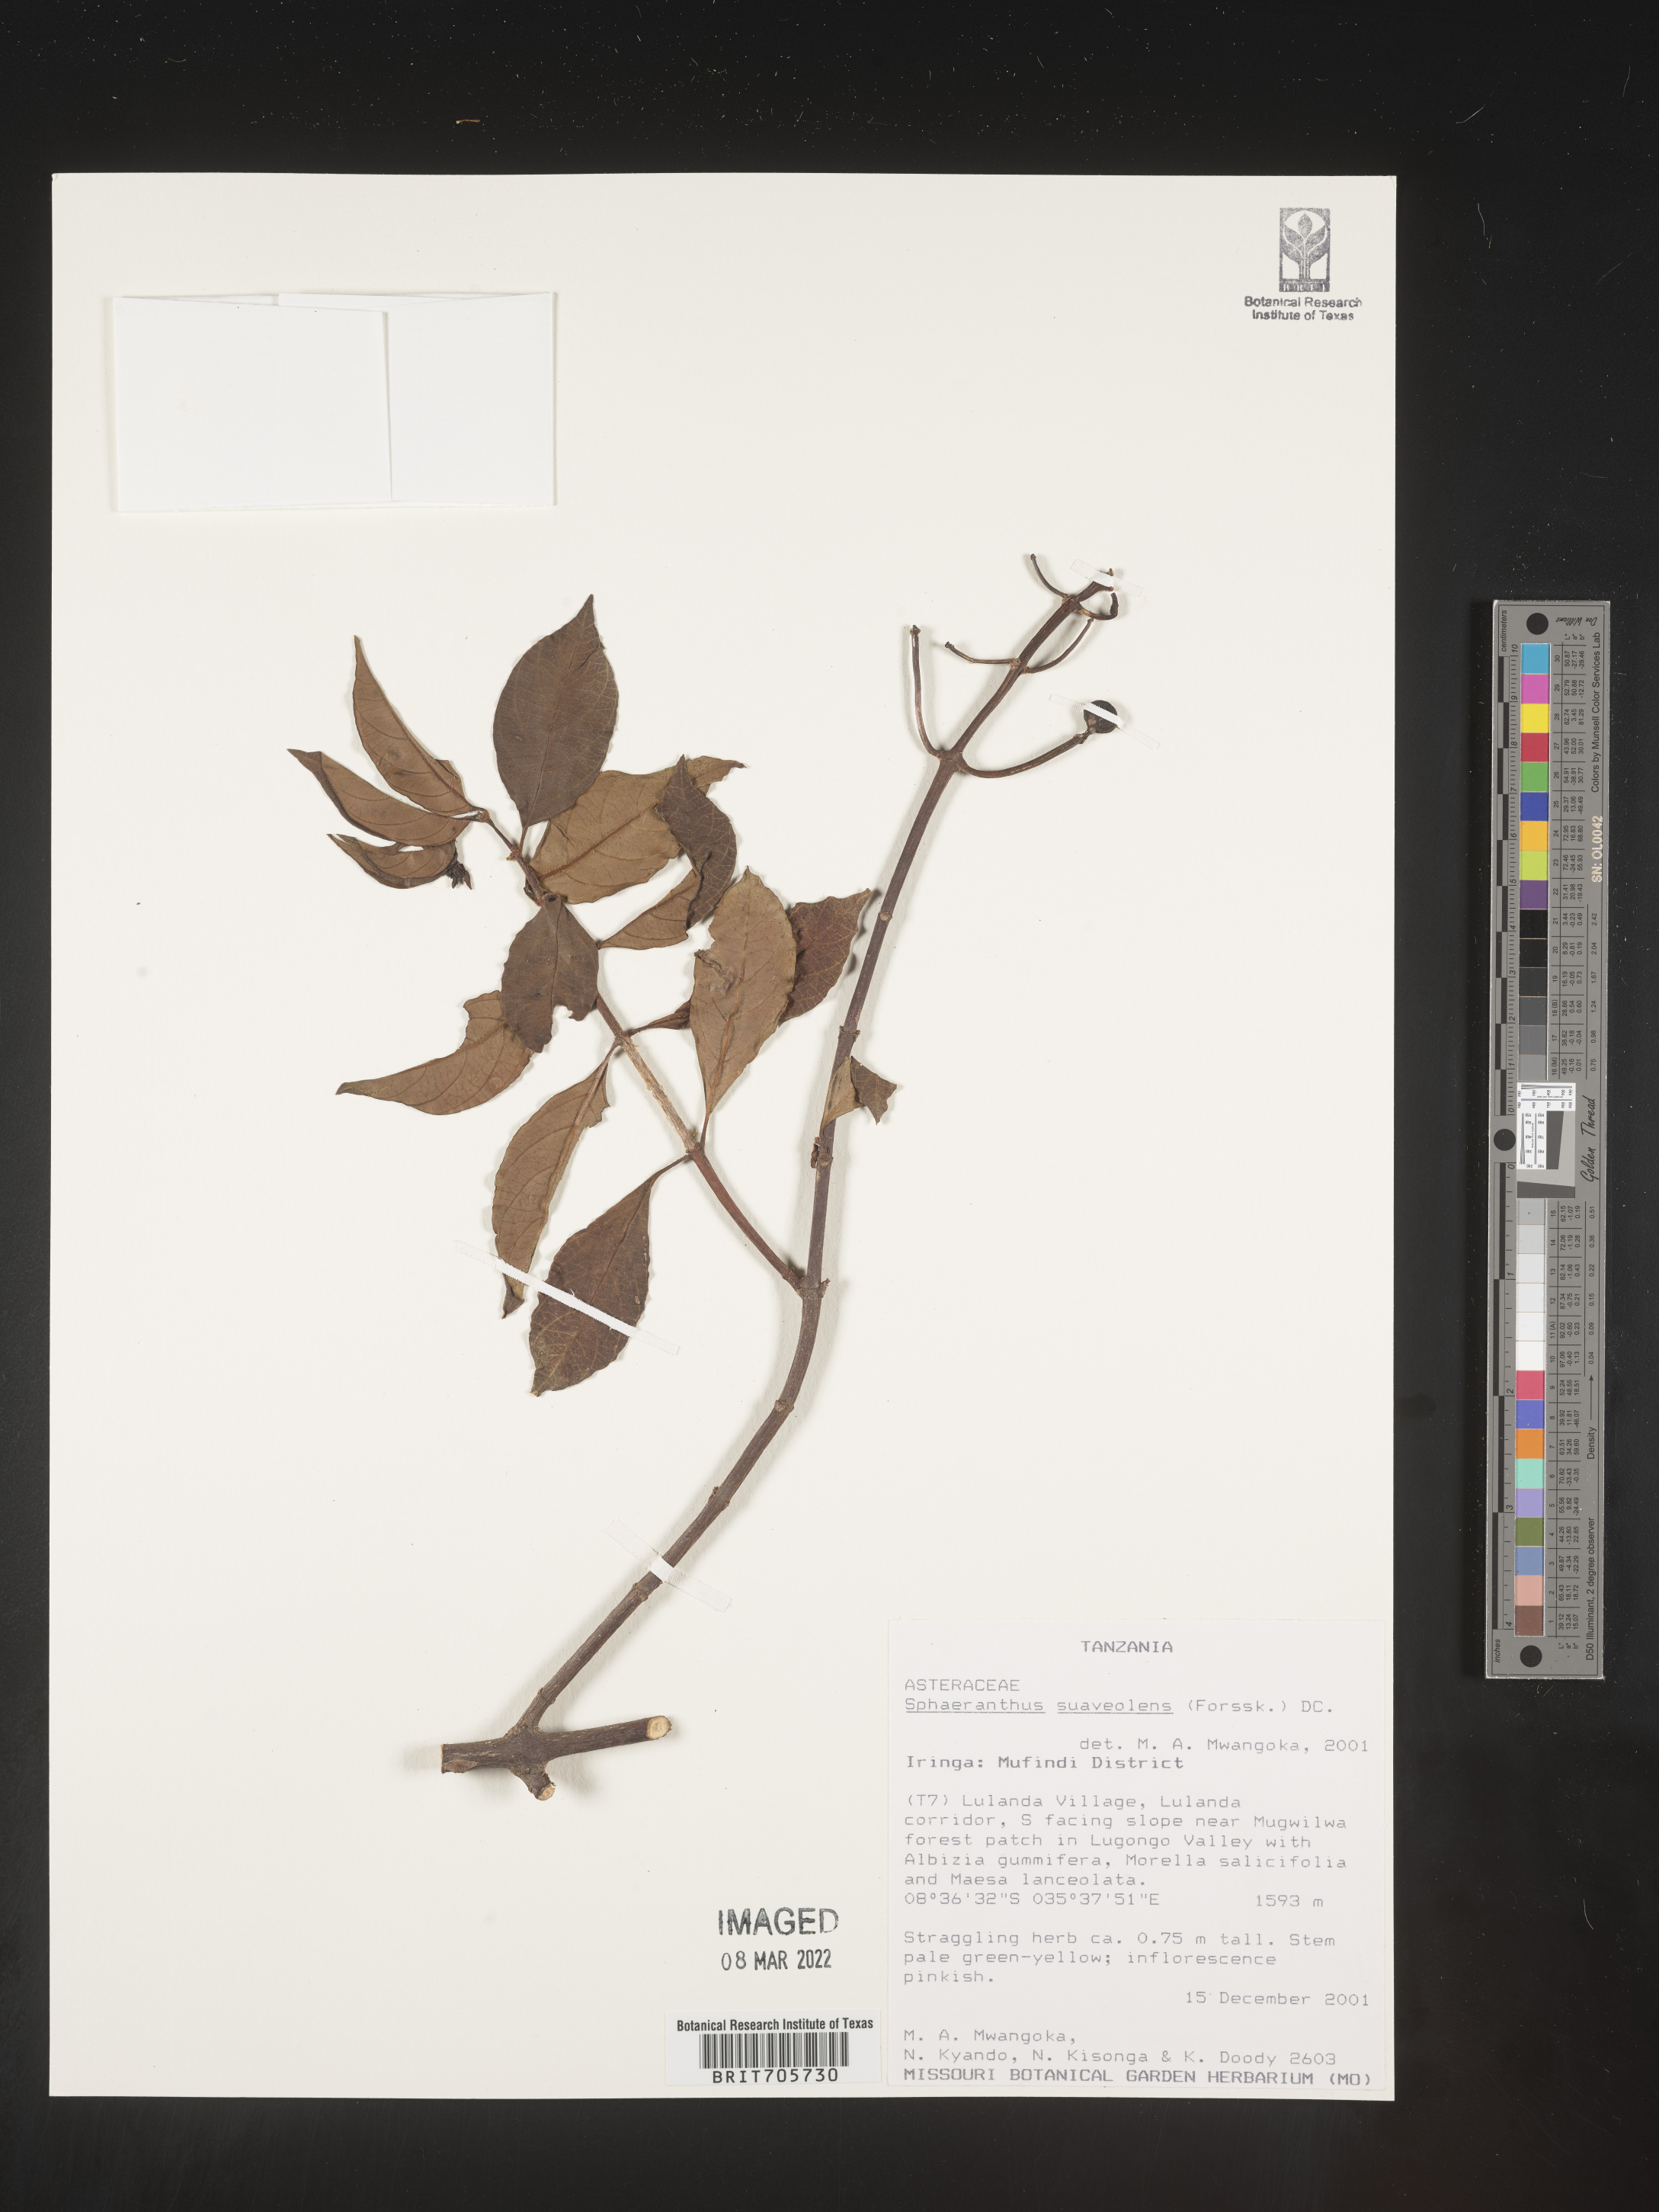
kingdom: Plantae
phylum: Tracheophyta
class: Magnoliopsida
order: Asterales
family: Asteraceae
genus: Sphaeranthus
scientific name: Sphaeranthus
